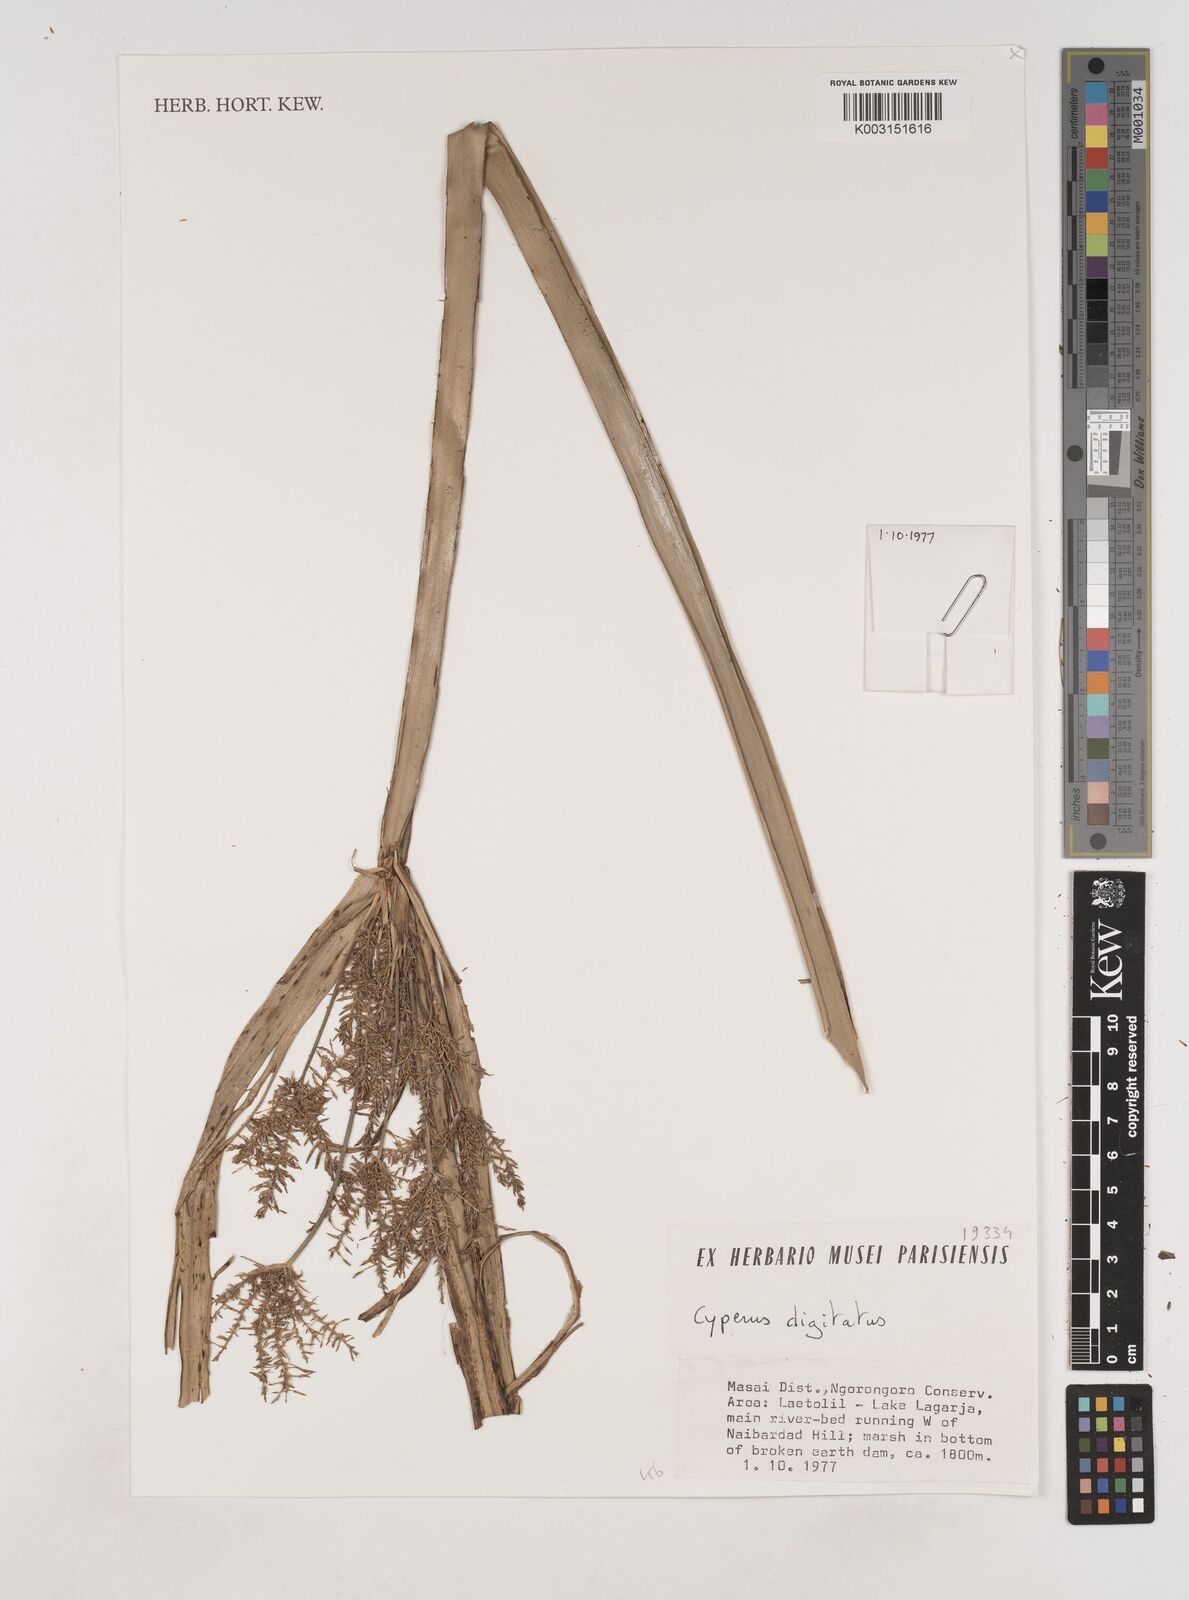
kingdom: Plantae
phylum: Tracheophyta
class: Liliopsida
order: Poales
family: Cyperaceae
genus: Cyperus
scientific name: Cyperus digitatus
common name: Finger flatsedge
